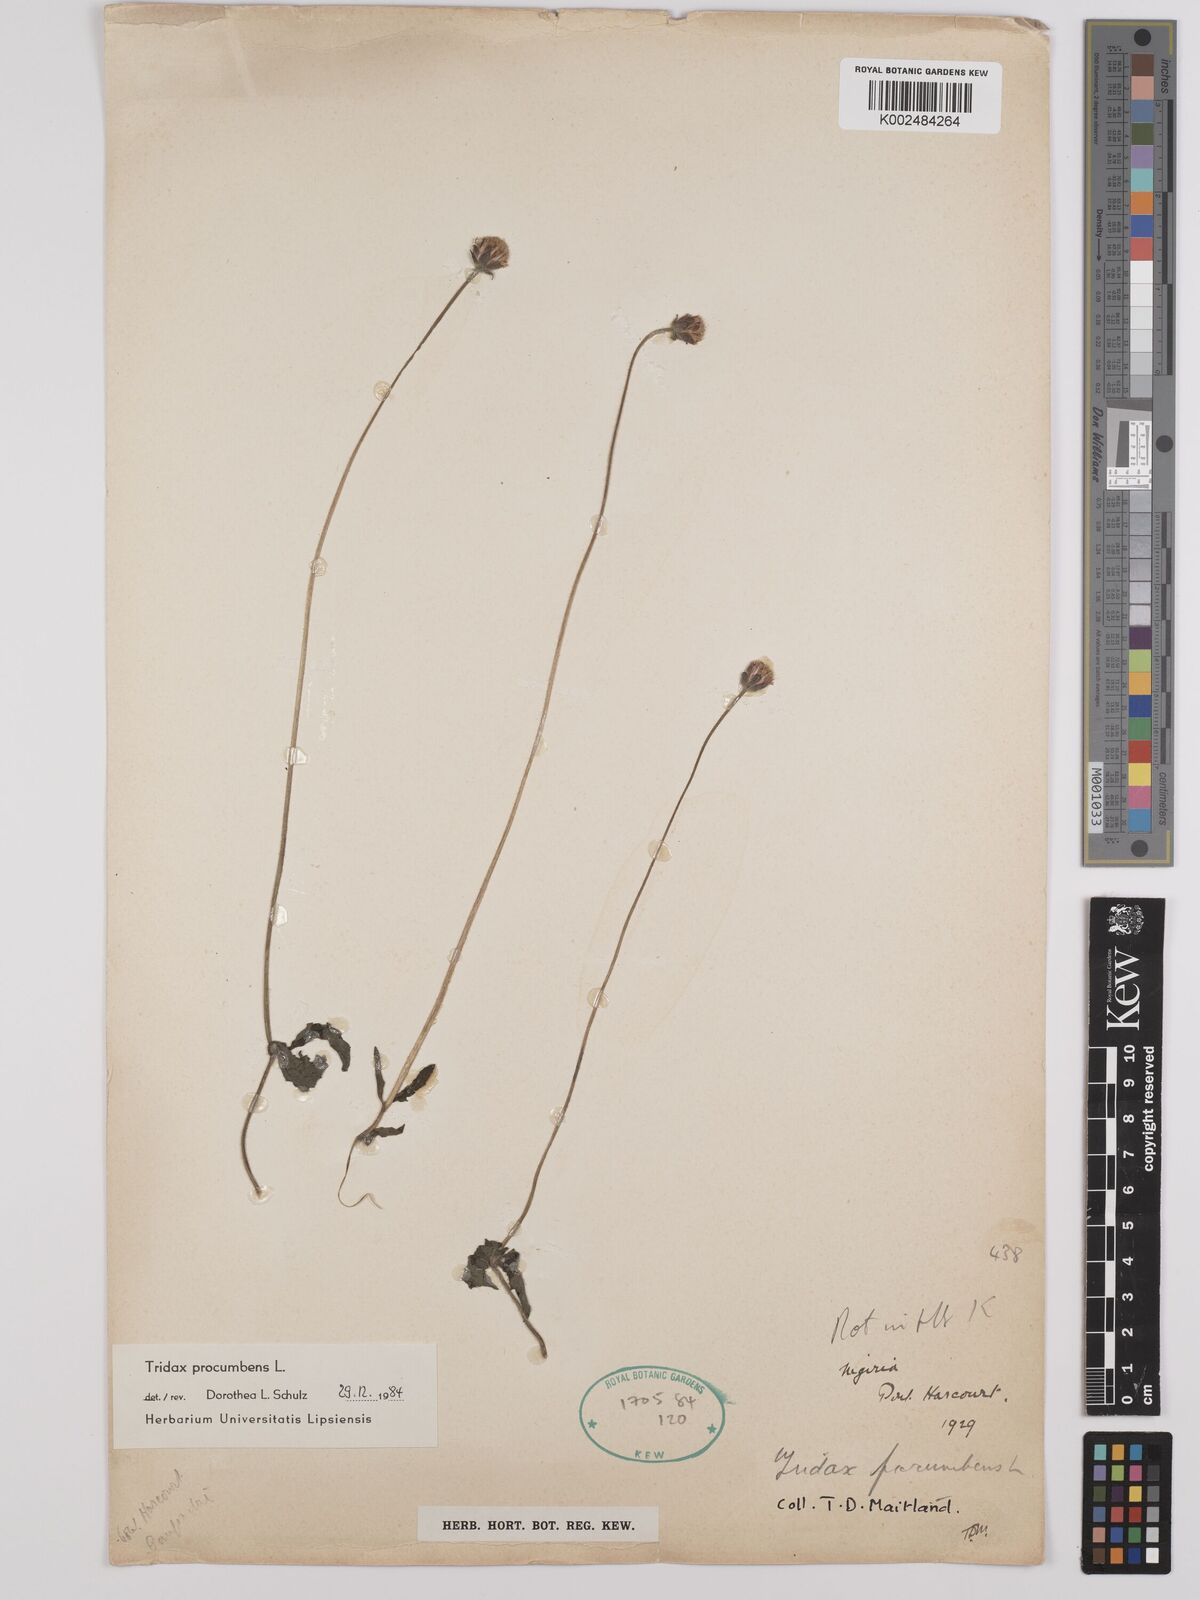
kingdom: Plantae
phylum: Tracheophyta
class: Magnoliopsida
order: Asterales
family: Asteraceae
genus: Tridax
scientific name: Tridax procumbens
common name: Coatbuttons
